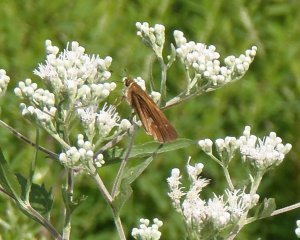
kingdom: Animalia
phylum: Arthropoda
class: Insecta
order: Lepidoptera
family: Hesperiidae
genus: Panoquina
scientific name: Panoquina ocola
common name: Ocola Skipper
